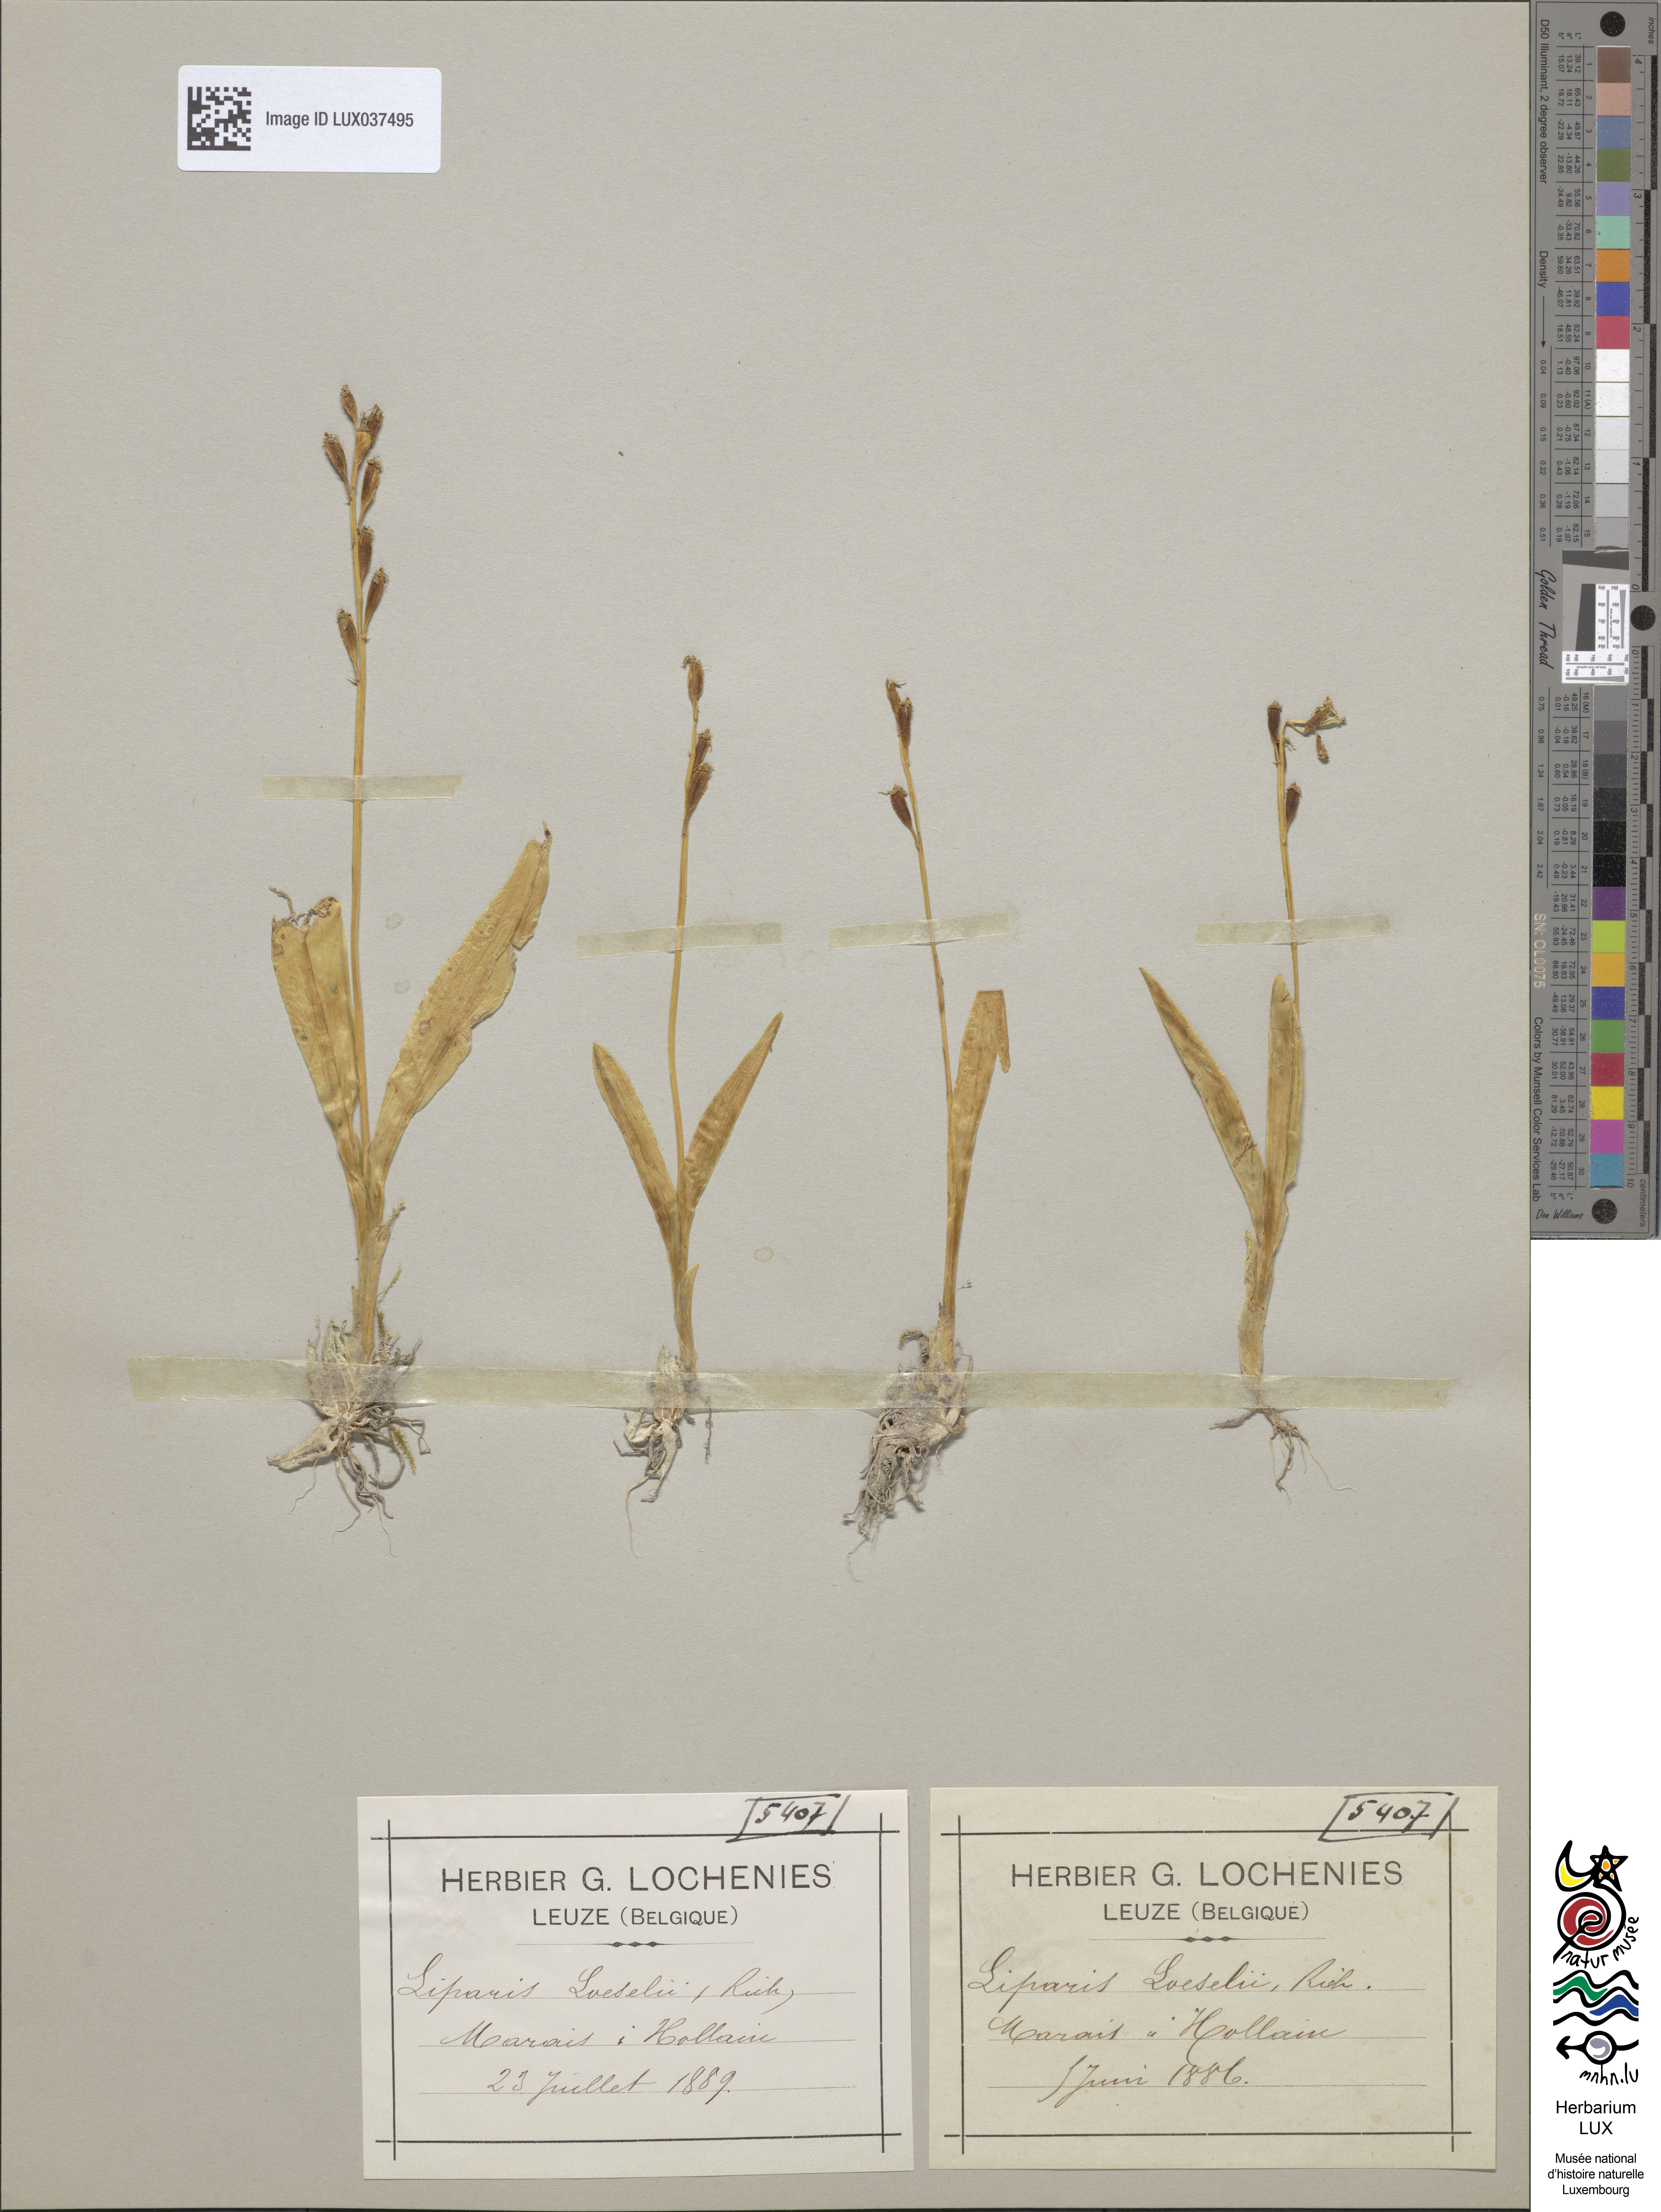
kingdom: Animalia
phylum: Arthropoda
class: Insecta
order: Coleoptera
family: Curculionidae
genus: Liparis
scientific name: Liparis loeselii
